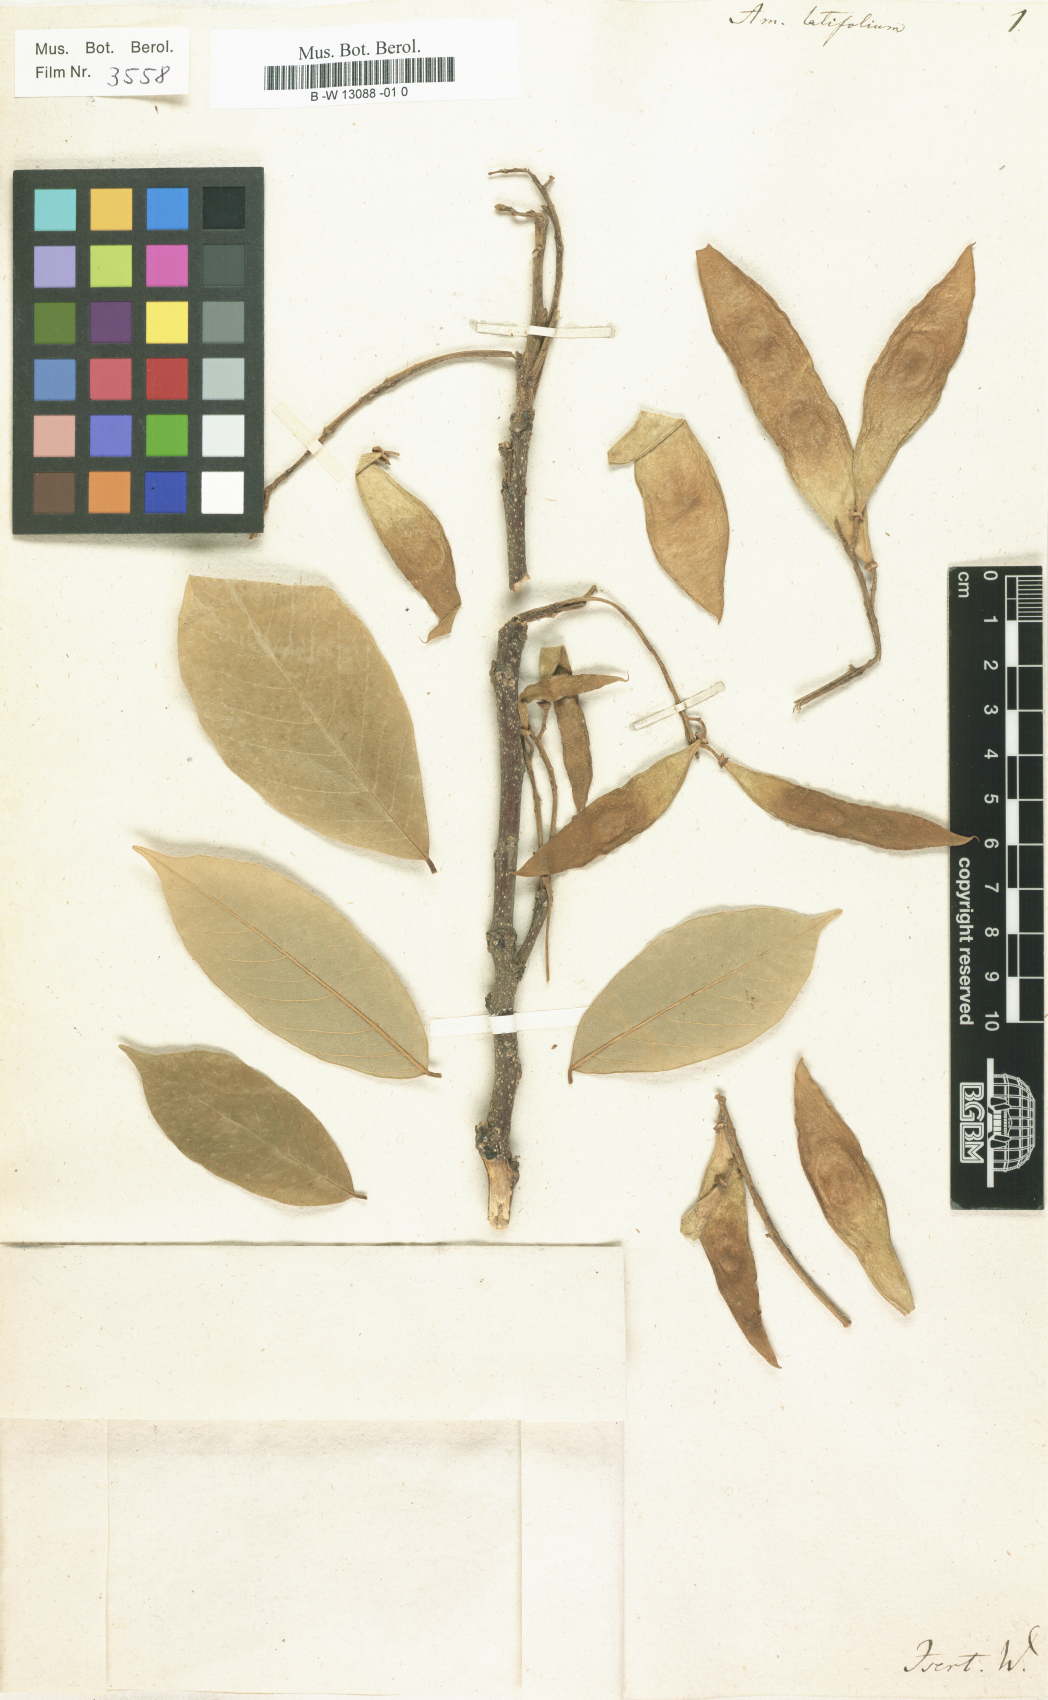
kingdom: Plantae
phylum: Tracheophyta
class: Magnoliopsida
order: Fabales
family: Fabaceae
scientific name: Fabaceae
